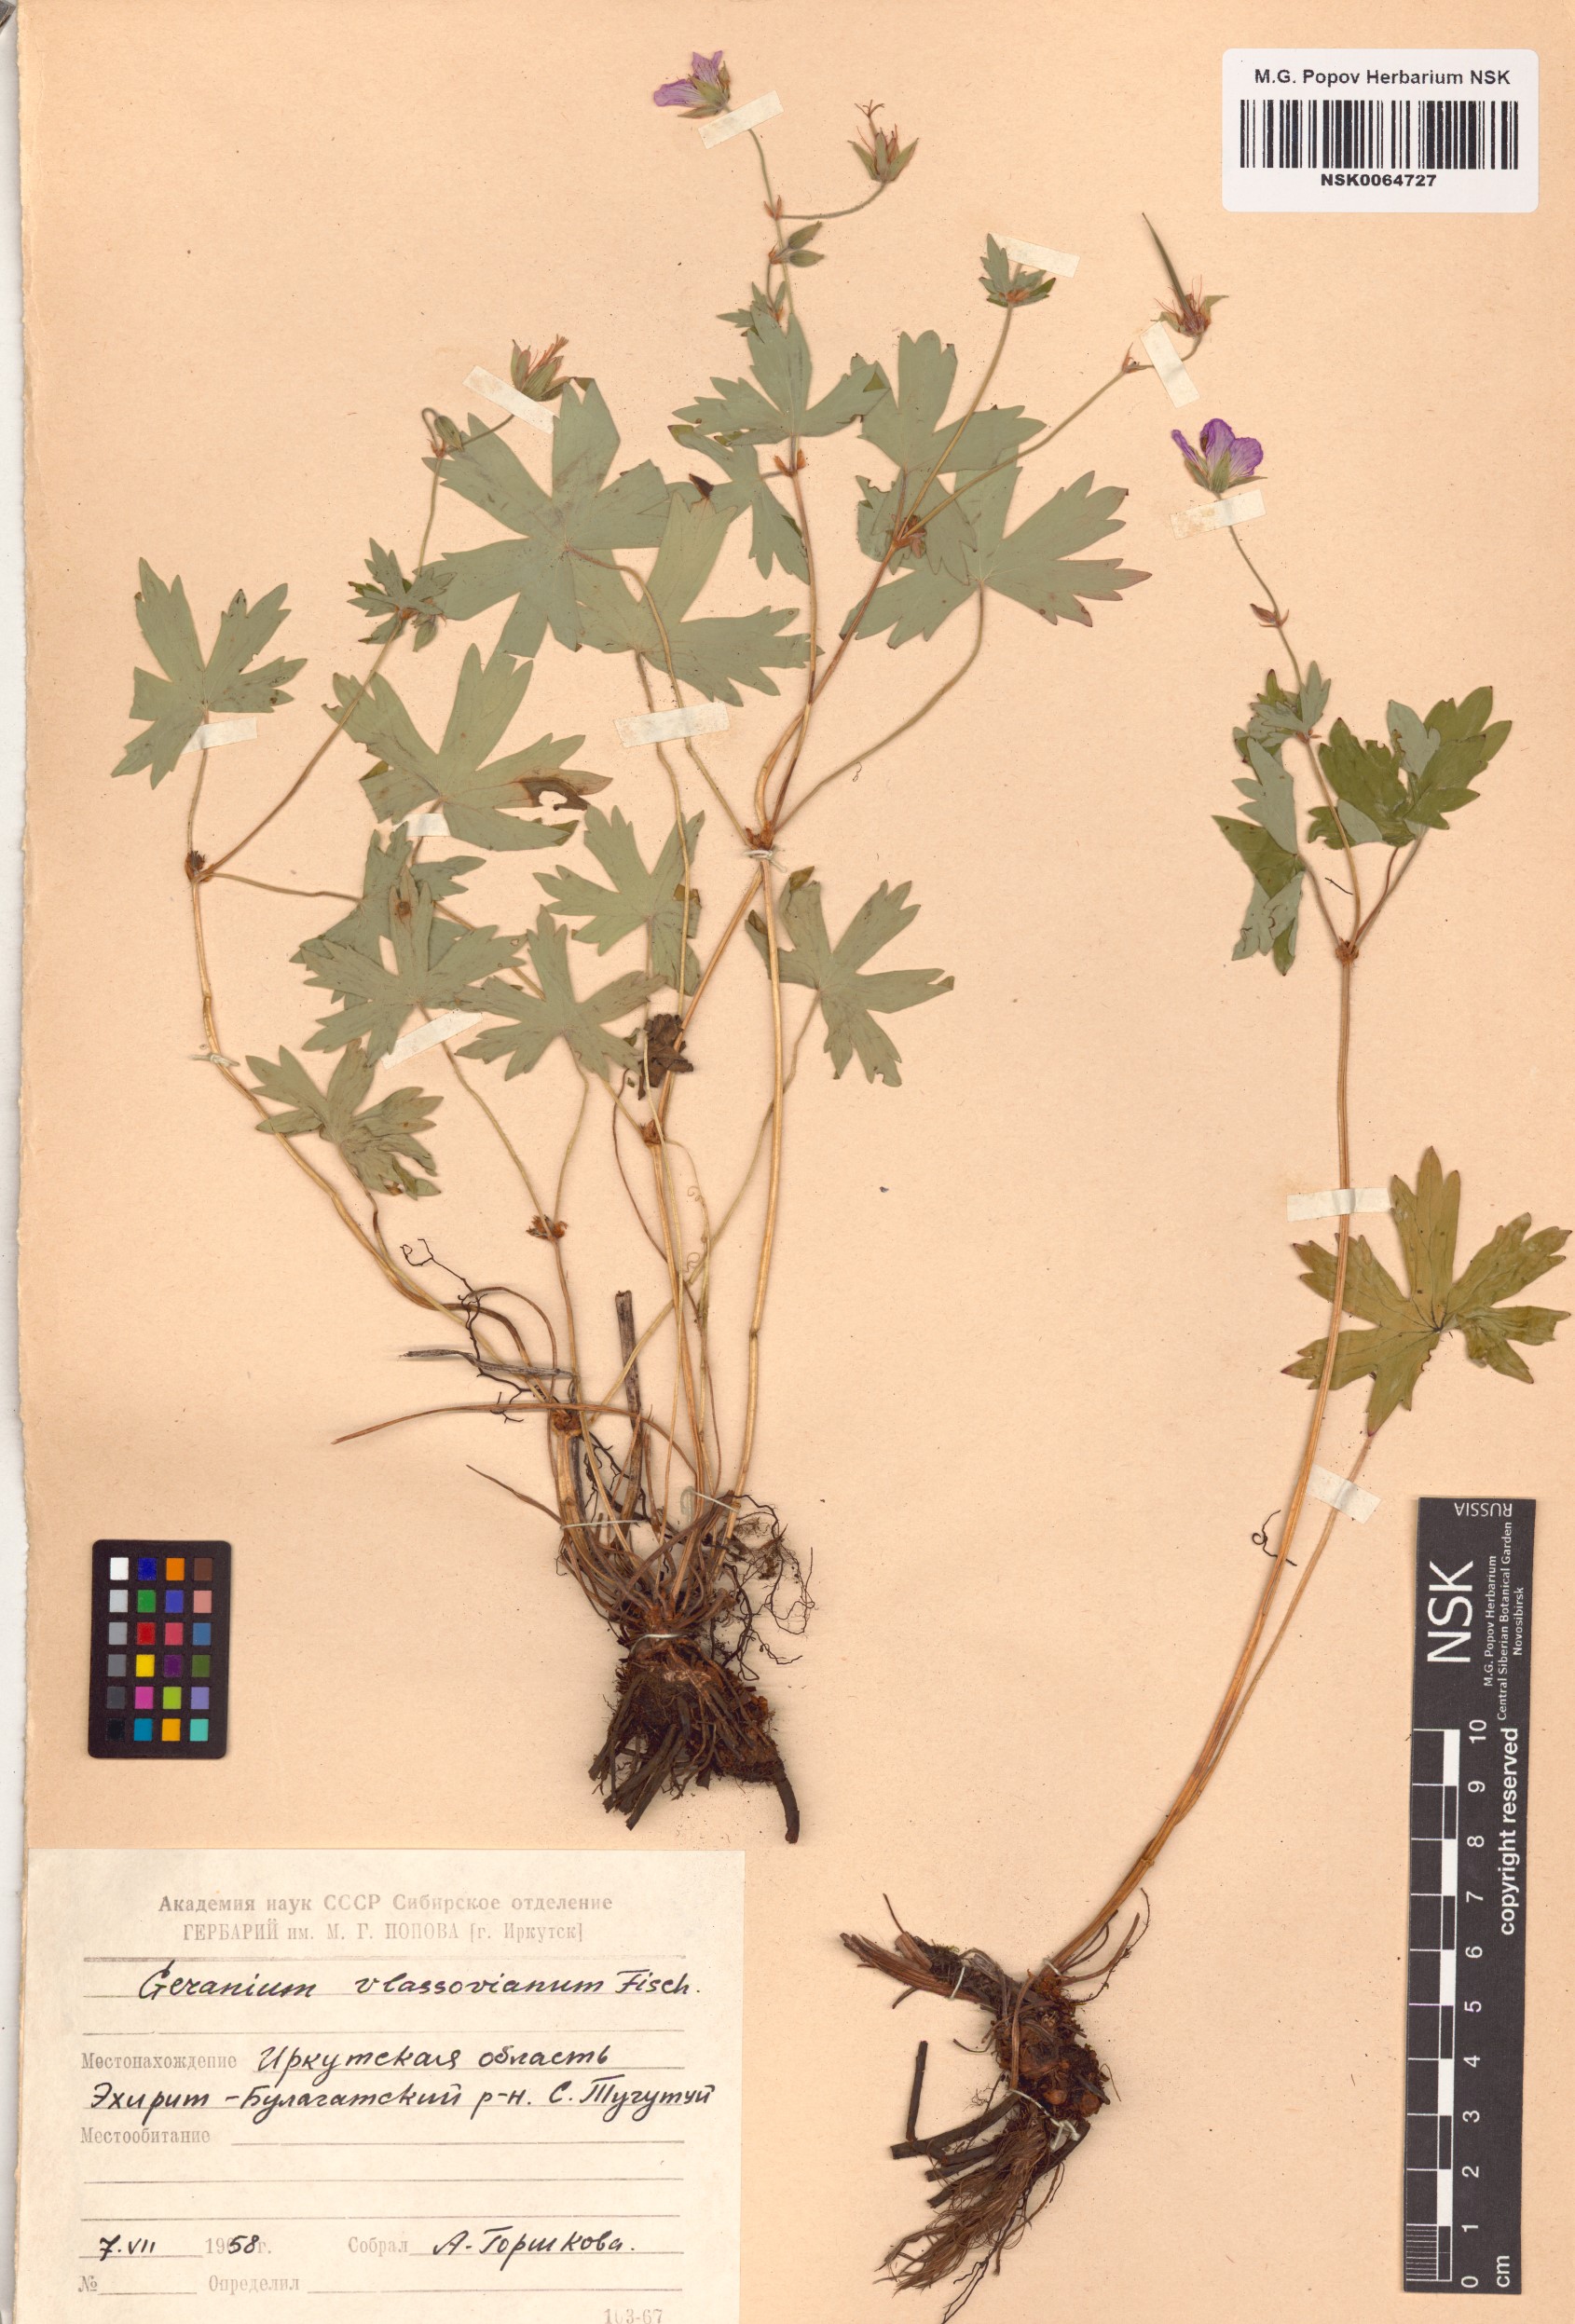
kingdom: Plantae
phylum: Tracheophyta
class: Magnoliopsida
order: Geraniales
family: Geraniaceae
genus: Geranium
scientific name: Geranium wlassovianum
